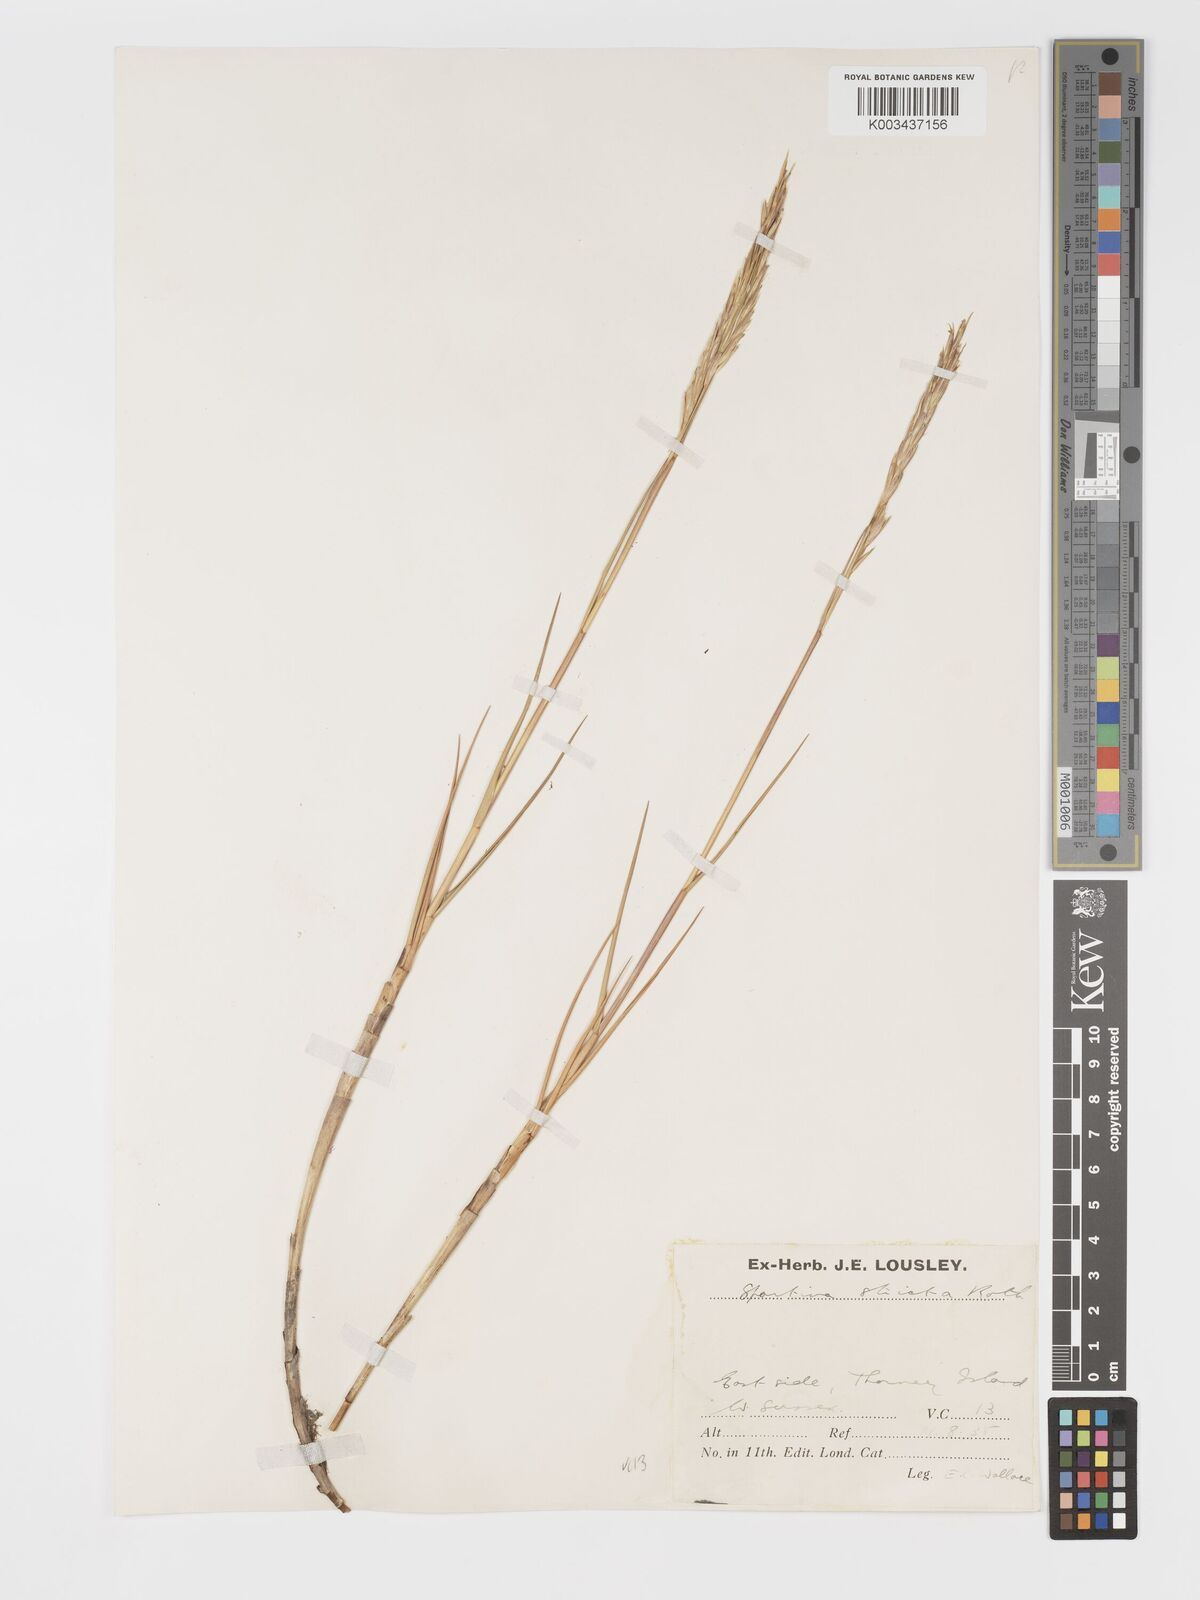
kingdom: Plantae
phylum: Tracheophyta
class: Liliopsida
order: Poales
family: Poaceae
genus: Sporobolus
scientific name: Sporobolus maritimus
